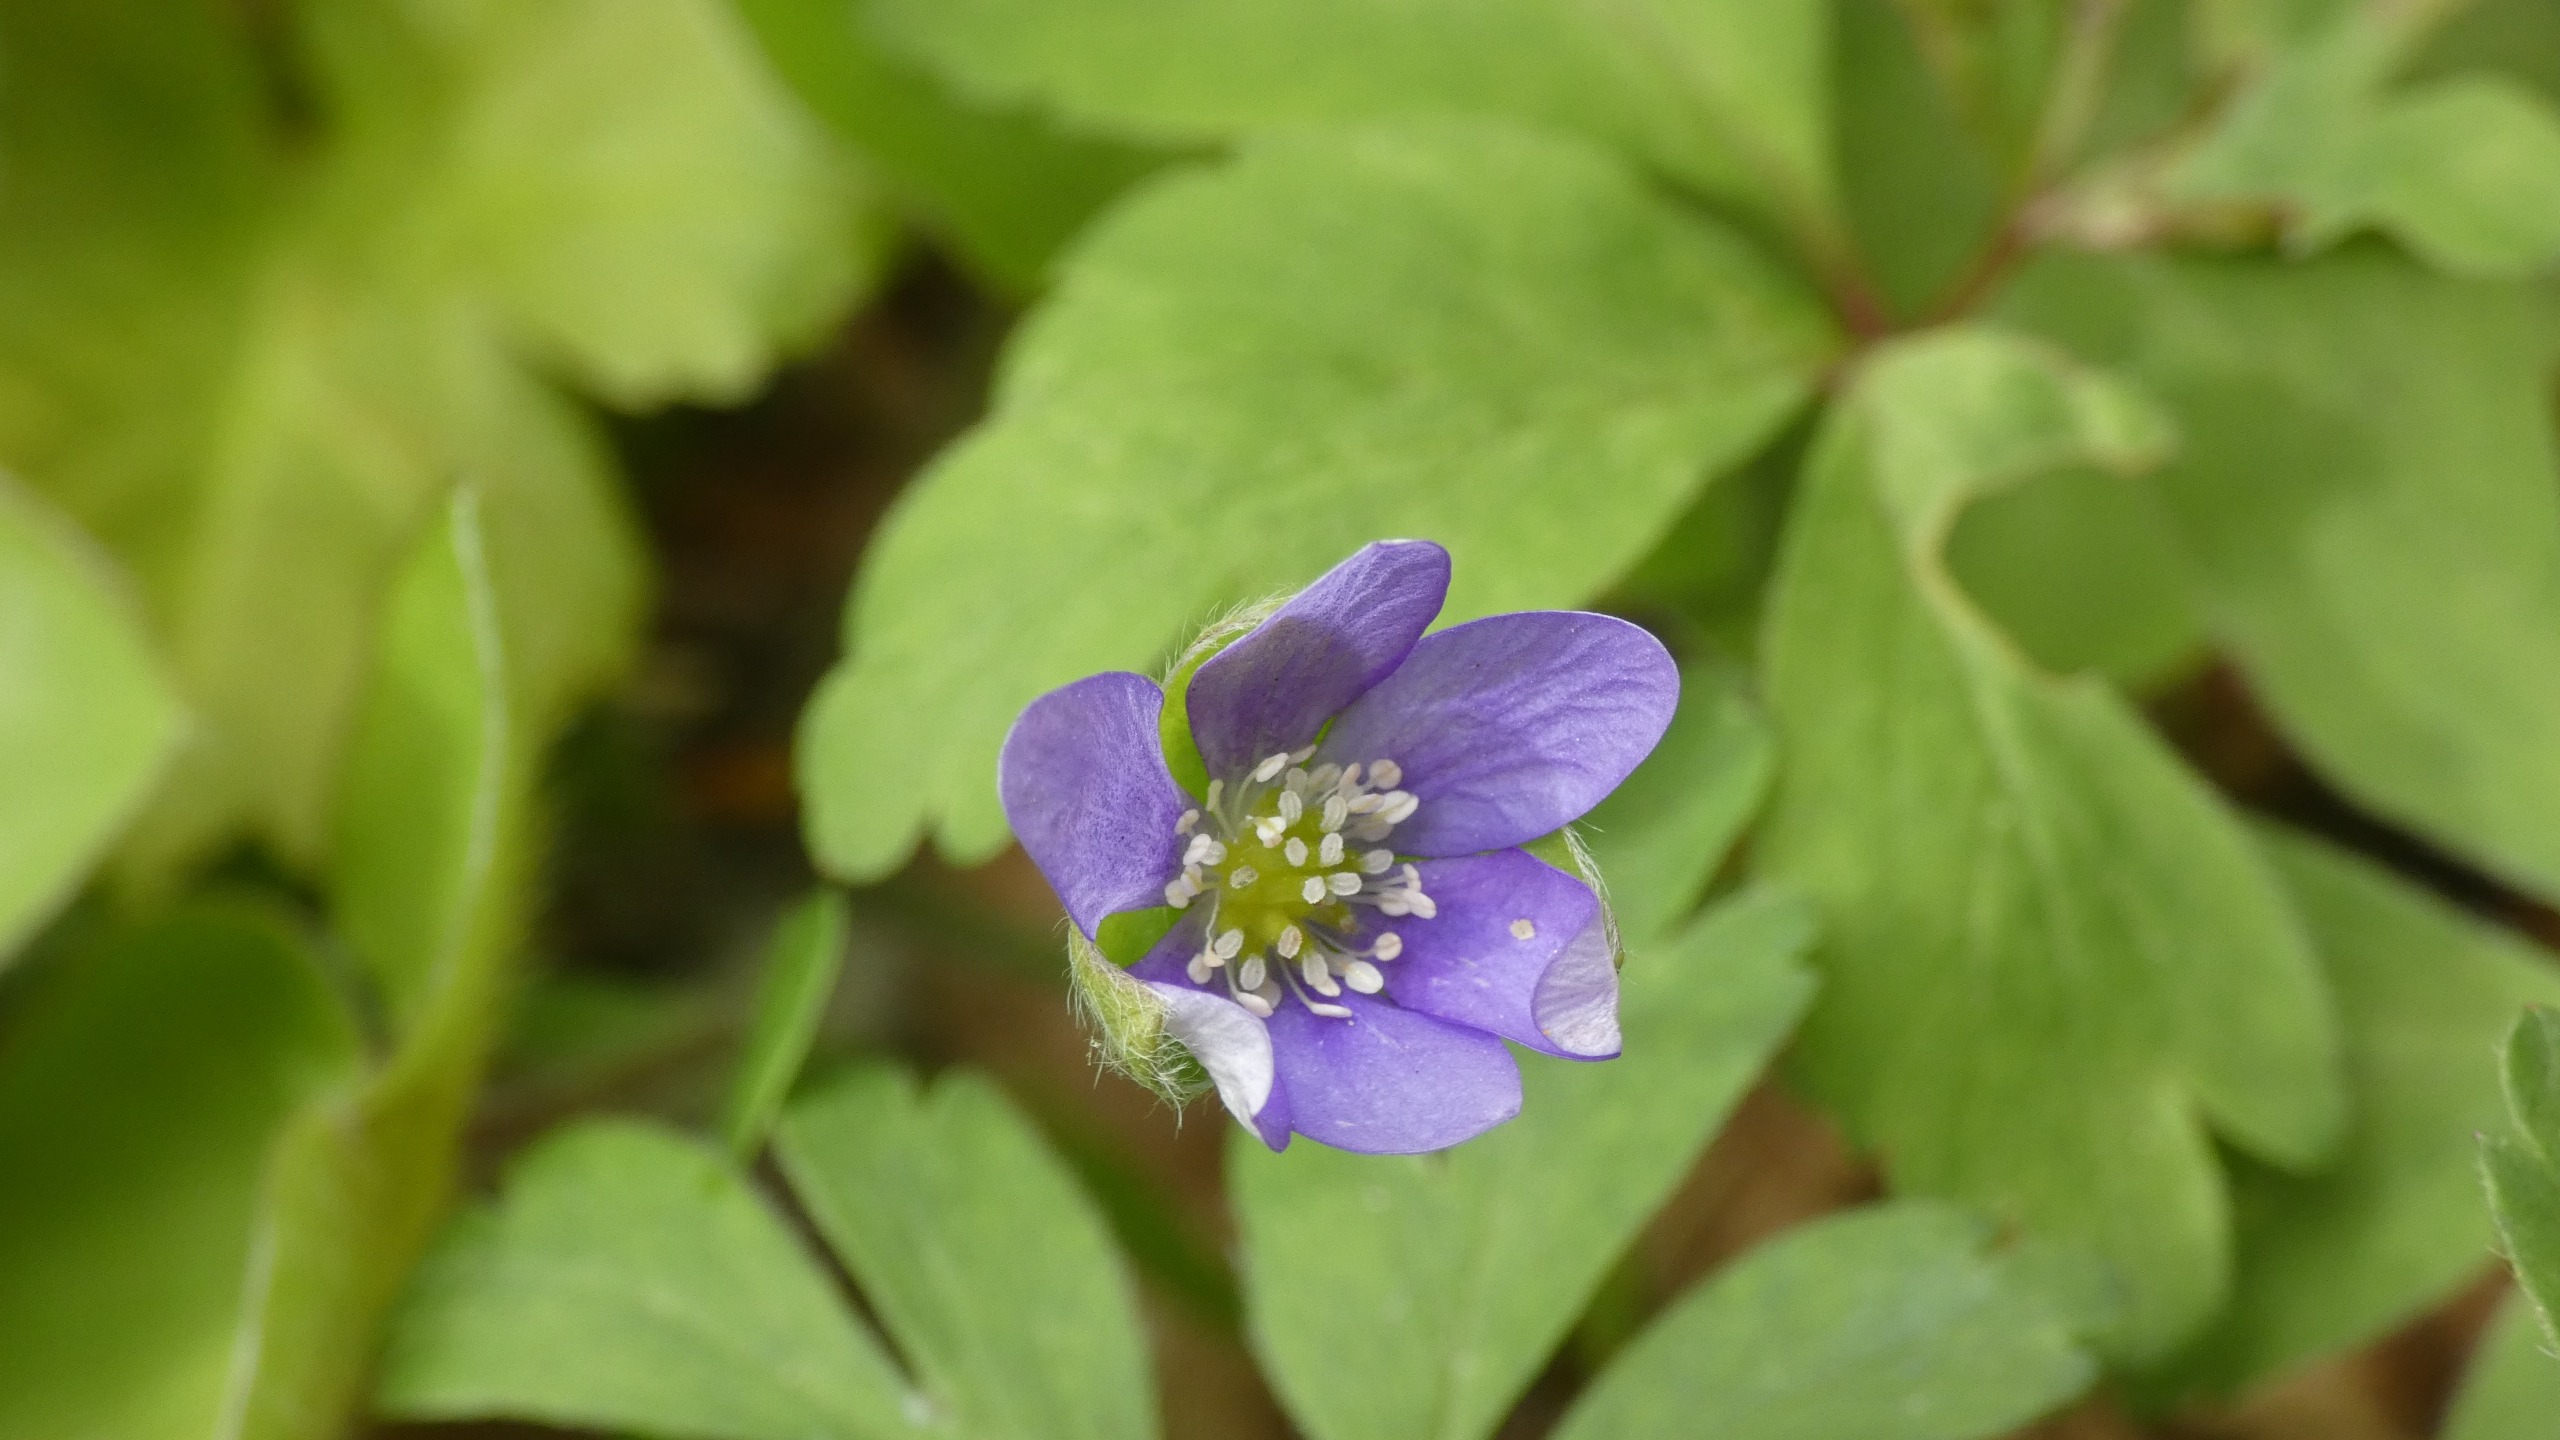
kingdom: Plantae
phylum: Tracheophyta
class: Magnoliopsida
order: Ranunculales
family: Ranunculaceae
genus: Hepatica
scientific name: Hepatica nobilis
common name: Blå anemone
